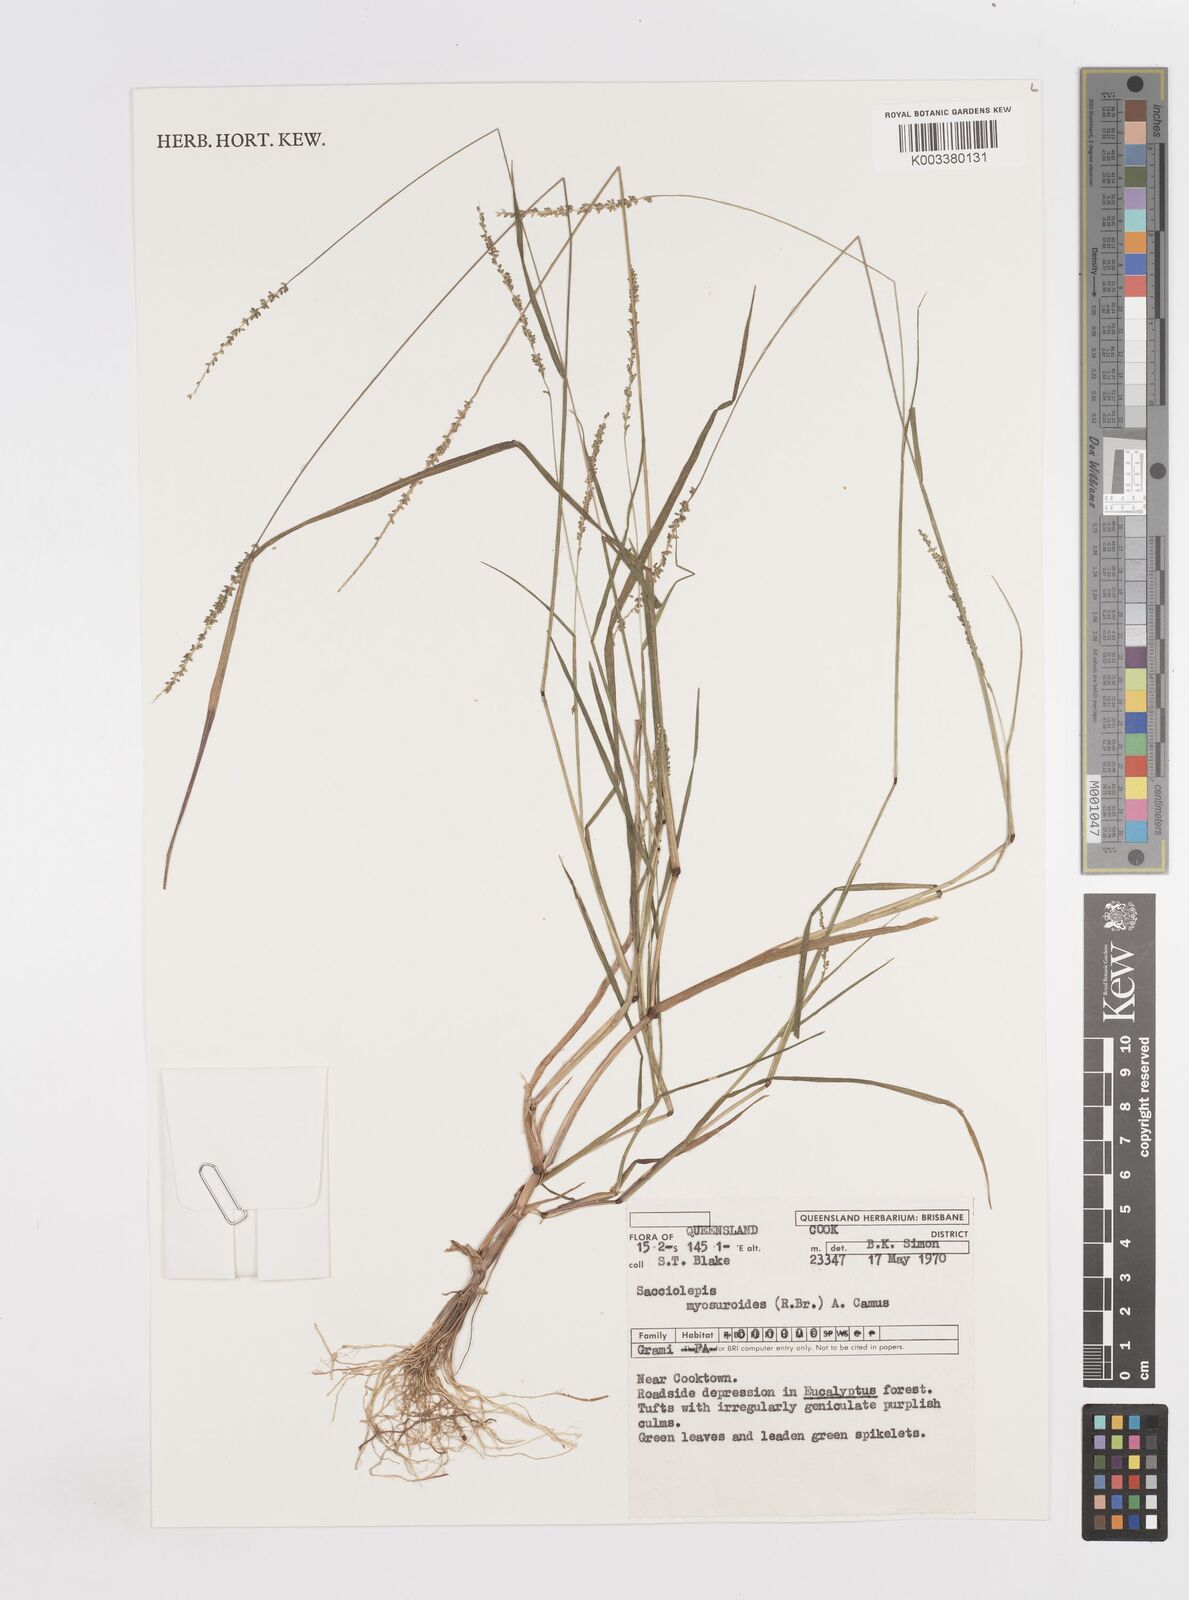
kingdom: Plantae
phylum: Tracheophyta
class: Liliopsida
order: Poales
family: Poaceae
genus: Sacciolepis
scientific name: Sacciolepis myosuroides
